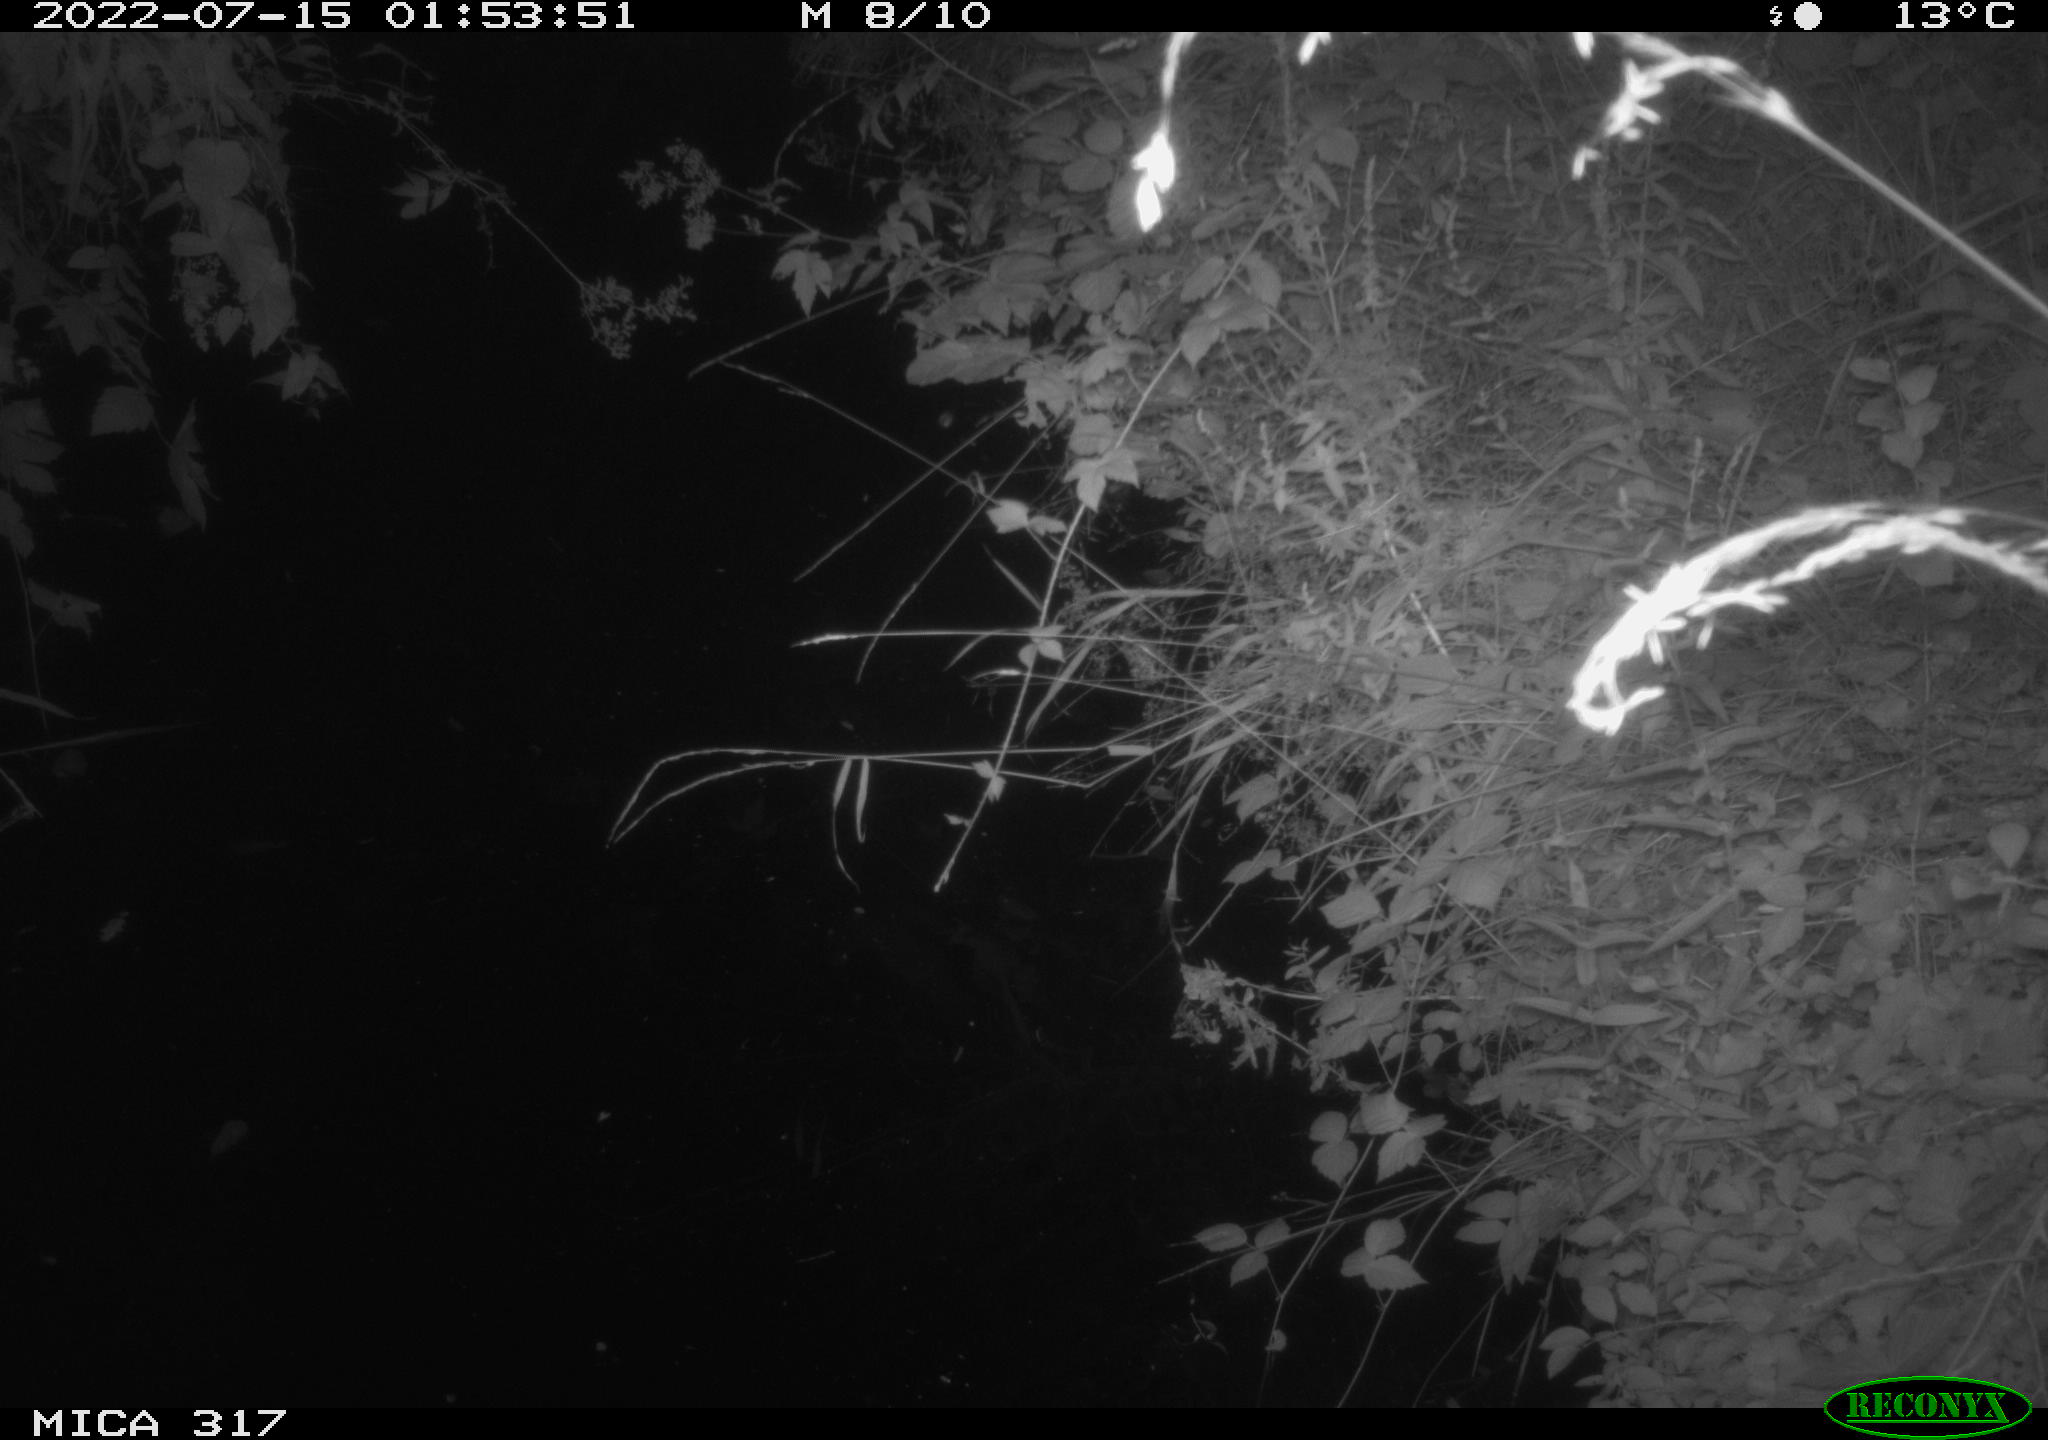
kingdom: Animalia
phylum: Chordata
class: Aves
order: Anseriformes
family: Anatidae
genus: Anas
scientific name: Anas platyrhynchos
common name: Mallard
